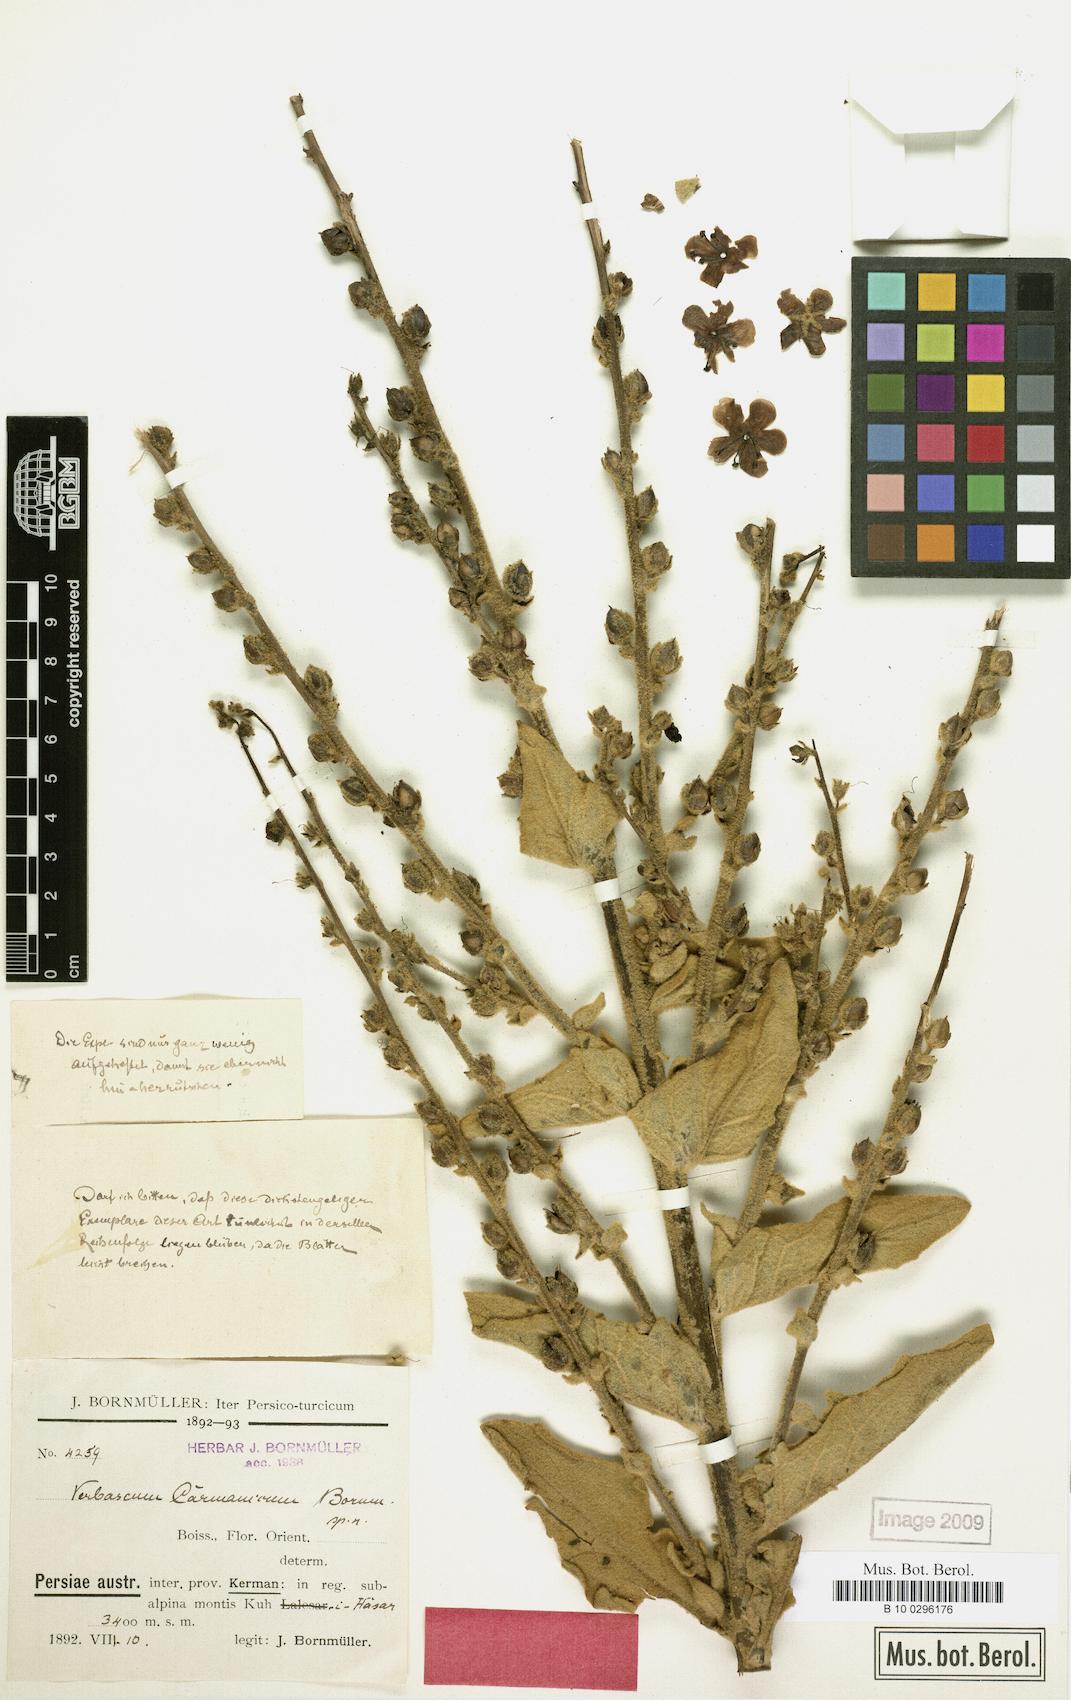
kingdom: Plantae
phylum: Tracheophyta
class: Magnoliopsida
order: Lamiales
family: Scrophulariaceae
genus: Verbascum
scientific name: Verbascum carmanicum
